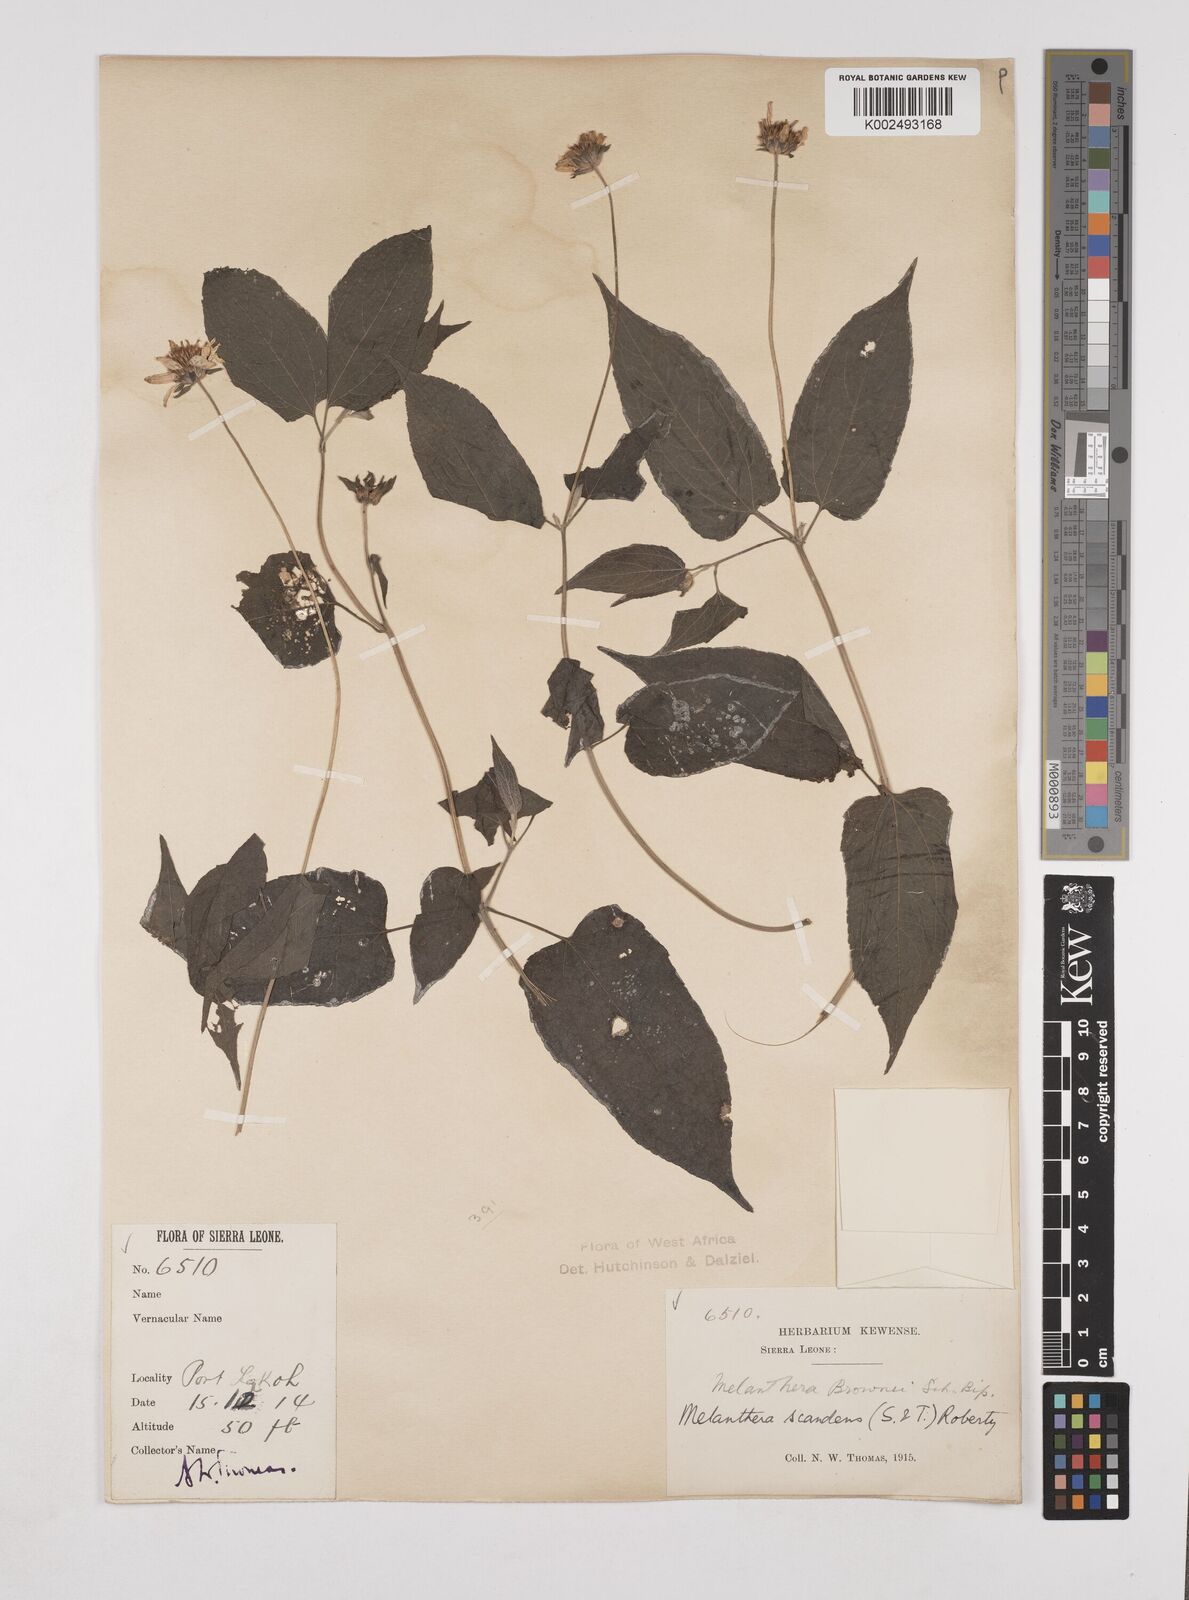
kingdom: Plantae
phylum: Tracheophyta
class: Magnoliopsida
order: Asterales
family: Asteraceae
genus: Lipotriche
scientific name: Lipotriche scandens
